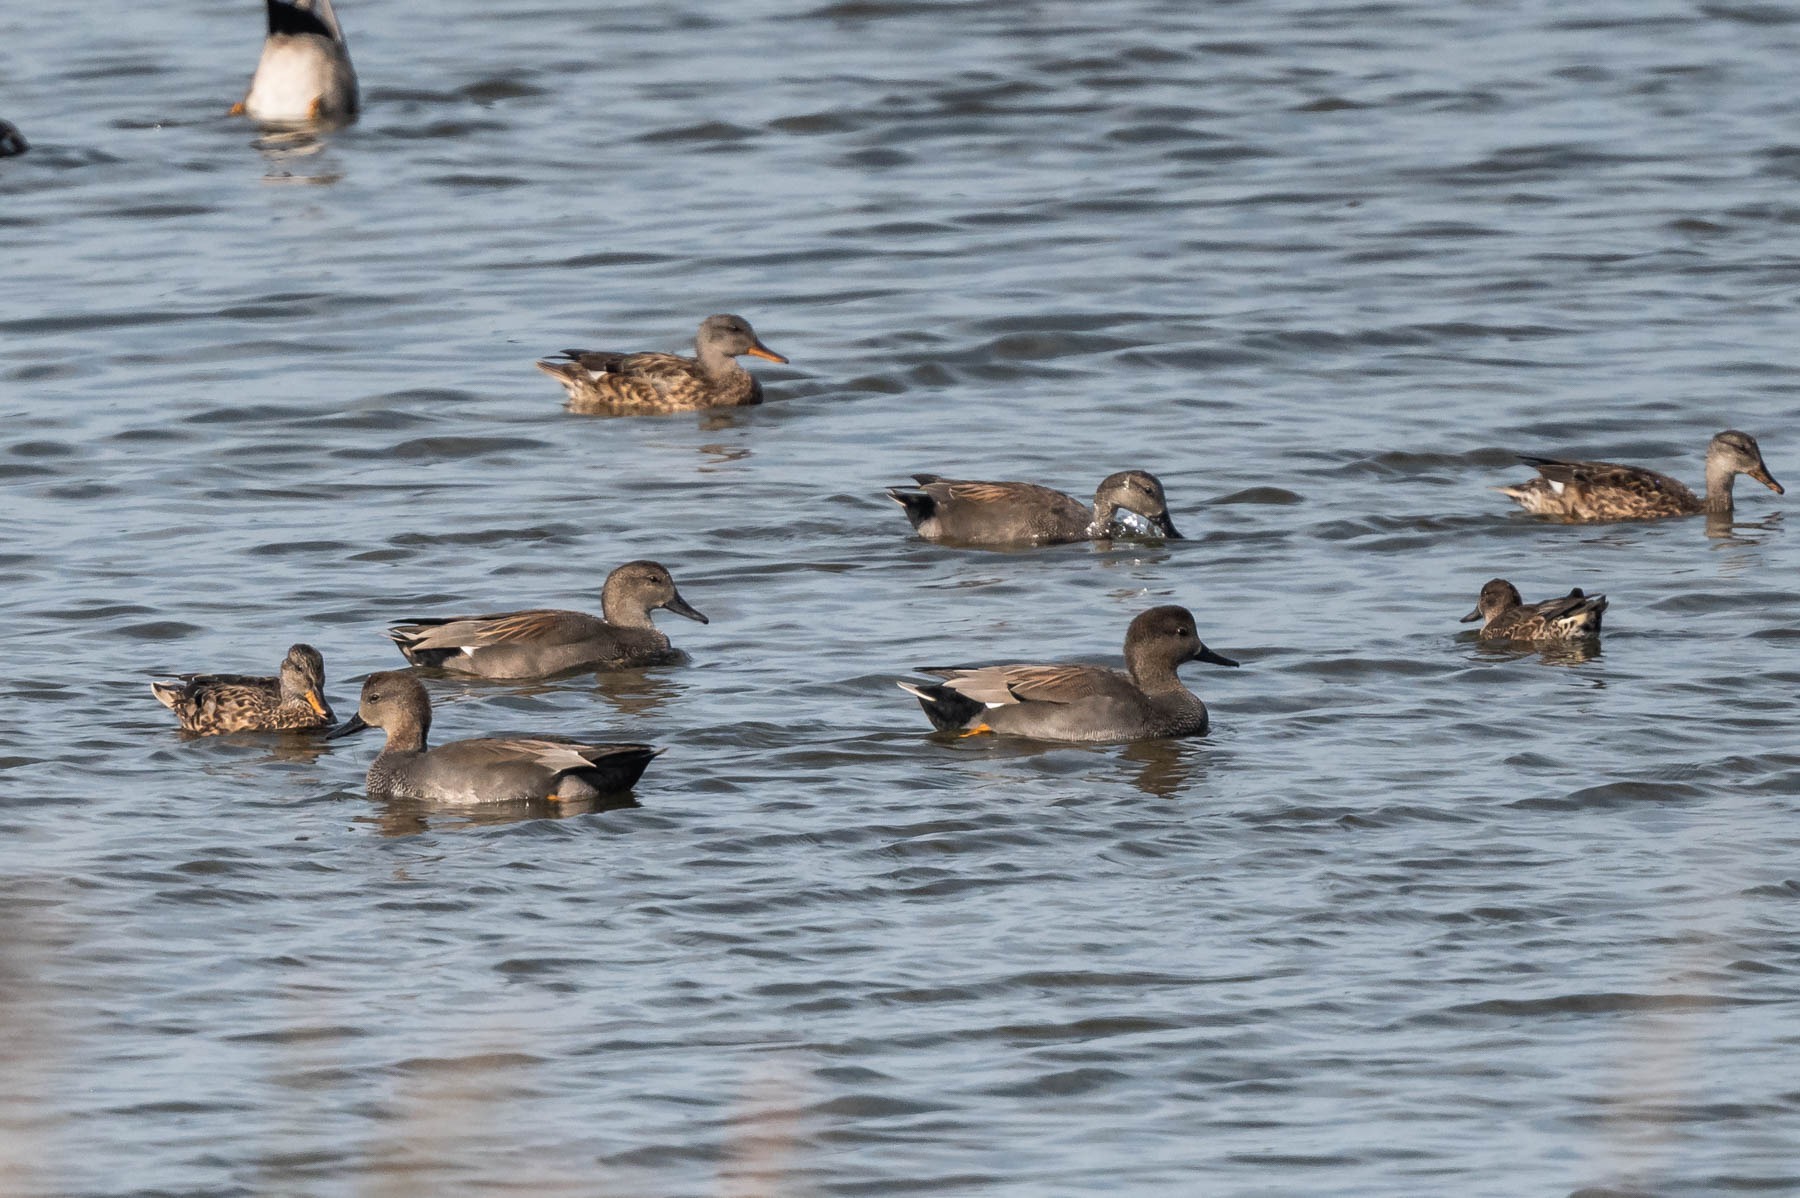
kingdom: Animalia
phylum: Chordata
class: Aves
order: Anseriformes
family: Anatidae
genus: Mareca
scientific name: Mareca strepera
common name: Knarand
